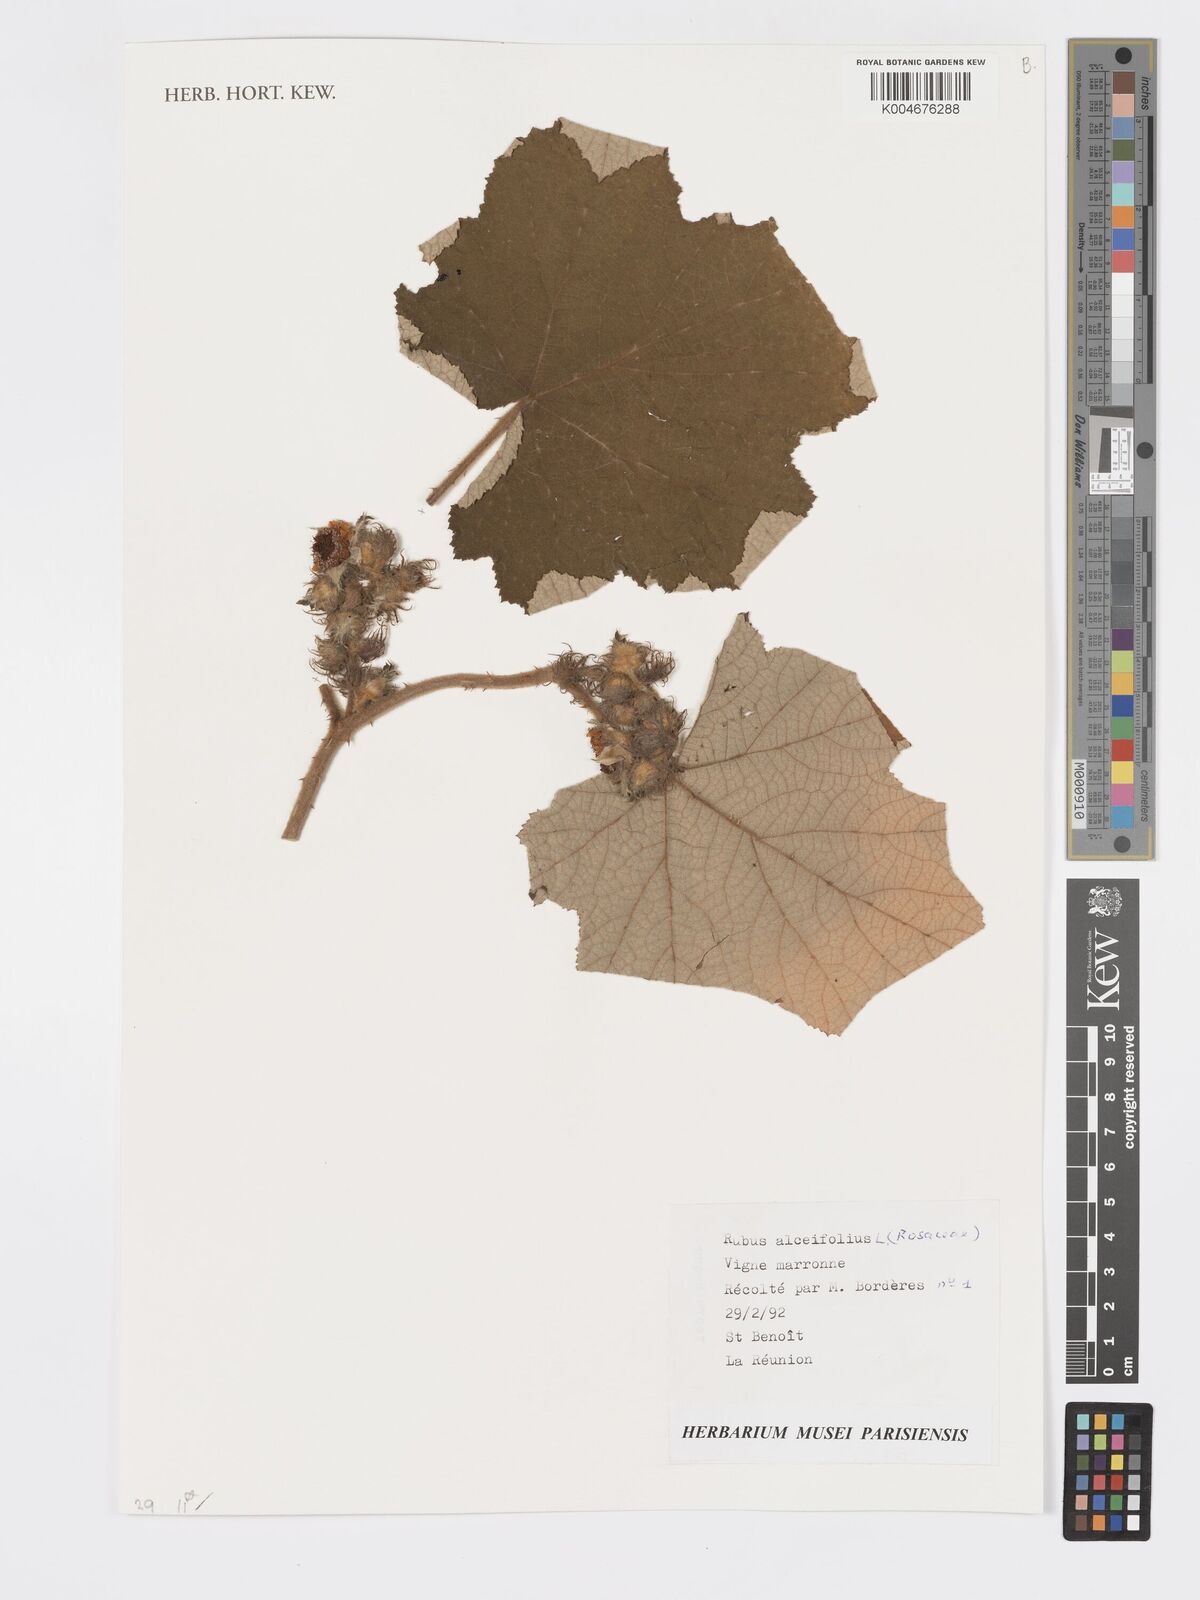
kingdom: Plantae
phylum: Tracheophyta
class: Magnoliopsida
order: Rosales
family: Rosaceae
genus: Rubus
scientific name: Rubus alceifolius
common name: Giant bramble
